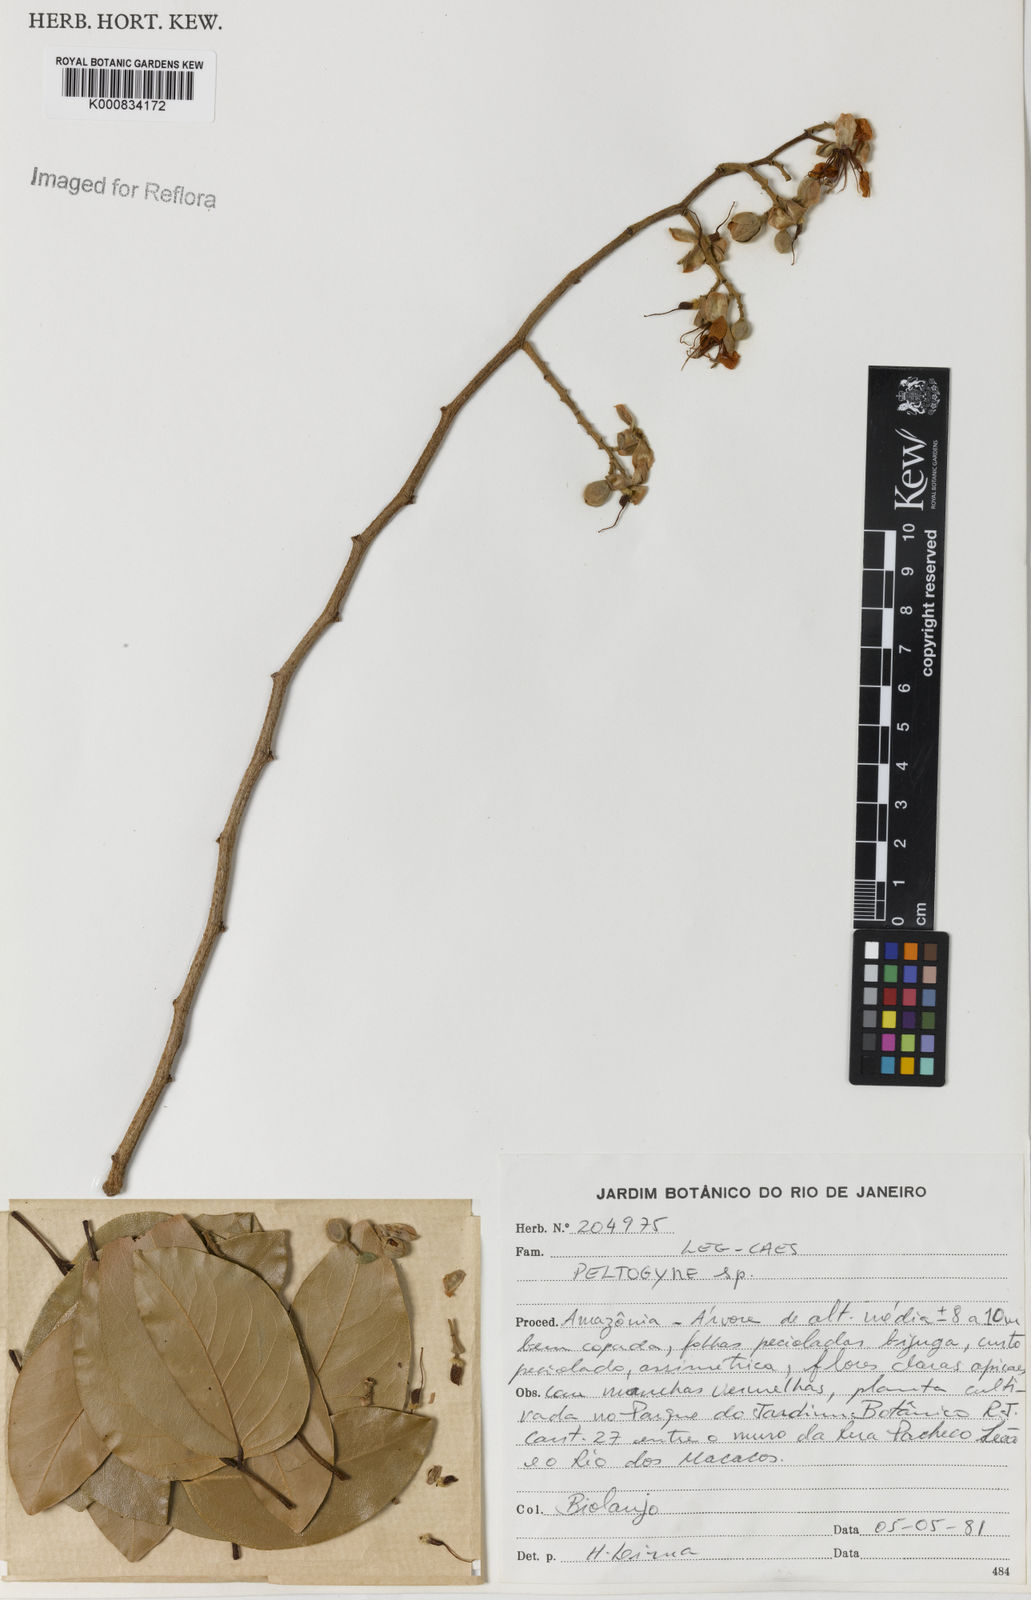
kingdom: Plantae
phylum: Tracheophyta
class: Magnoliopsida
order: Fabales
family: Fabaceae
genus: Peltogyne
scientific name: Peltogyne
